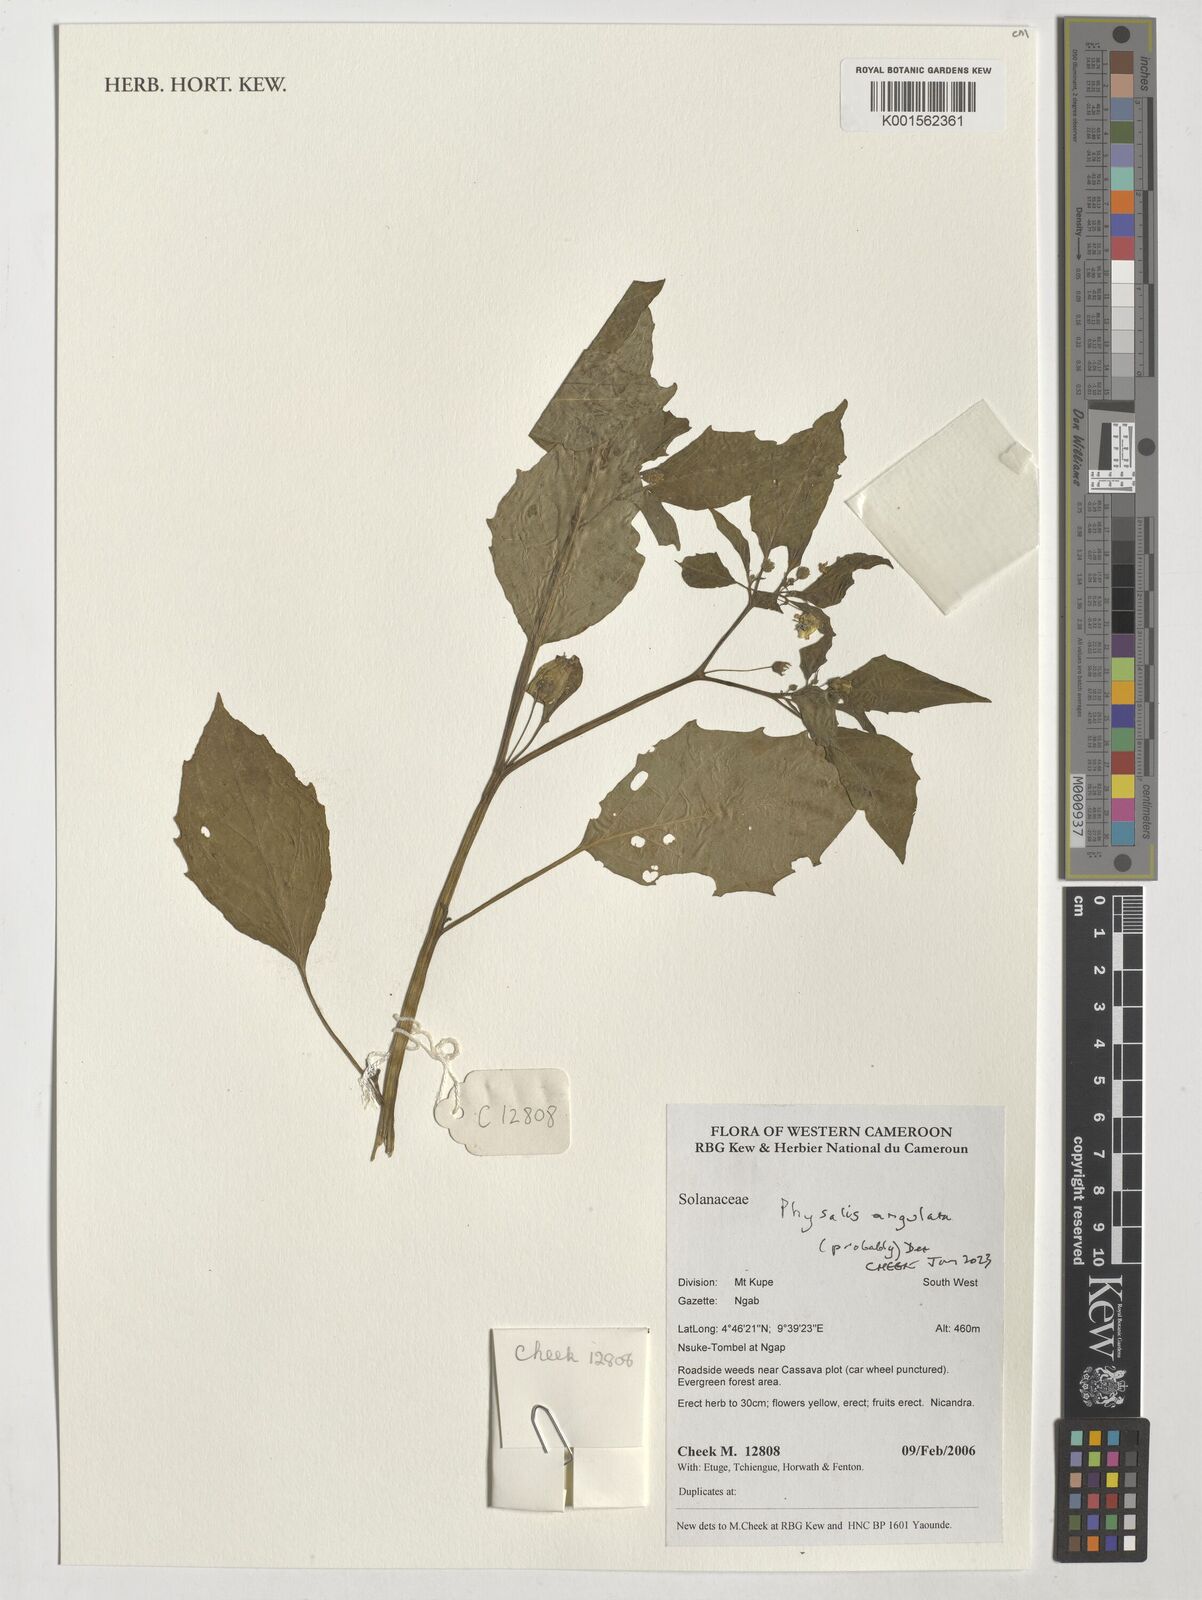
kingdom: Plantae
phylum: Tracheophyta
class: Magnoliopsida
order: Solanales
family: Solanaceae
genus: Physalis
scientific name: Physalis angulata
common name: Angular winter-cherry
